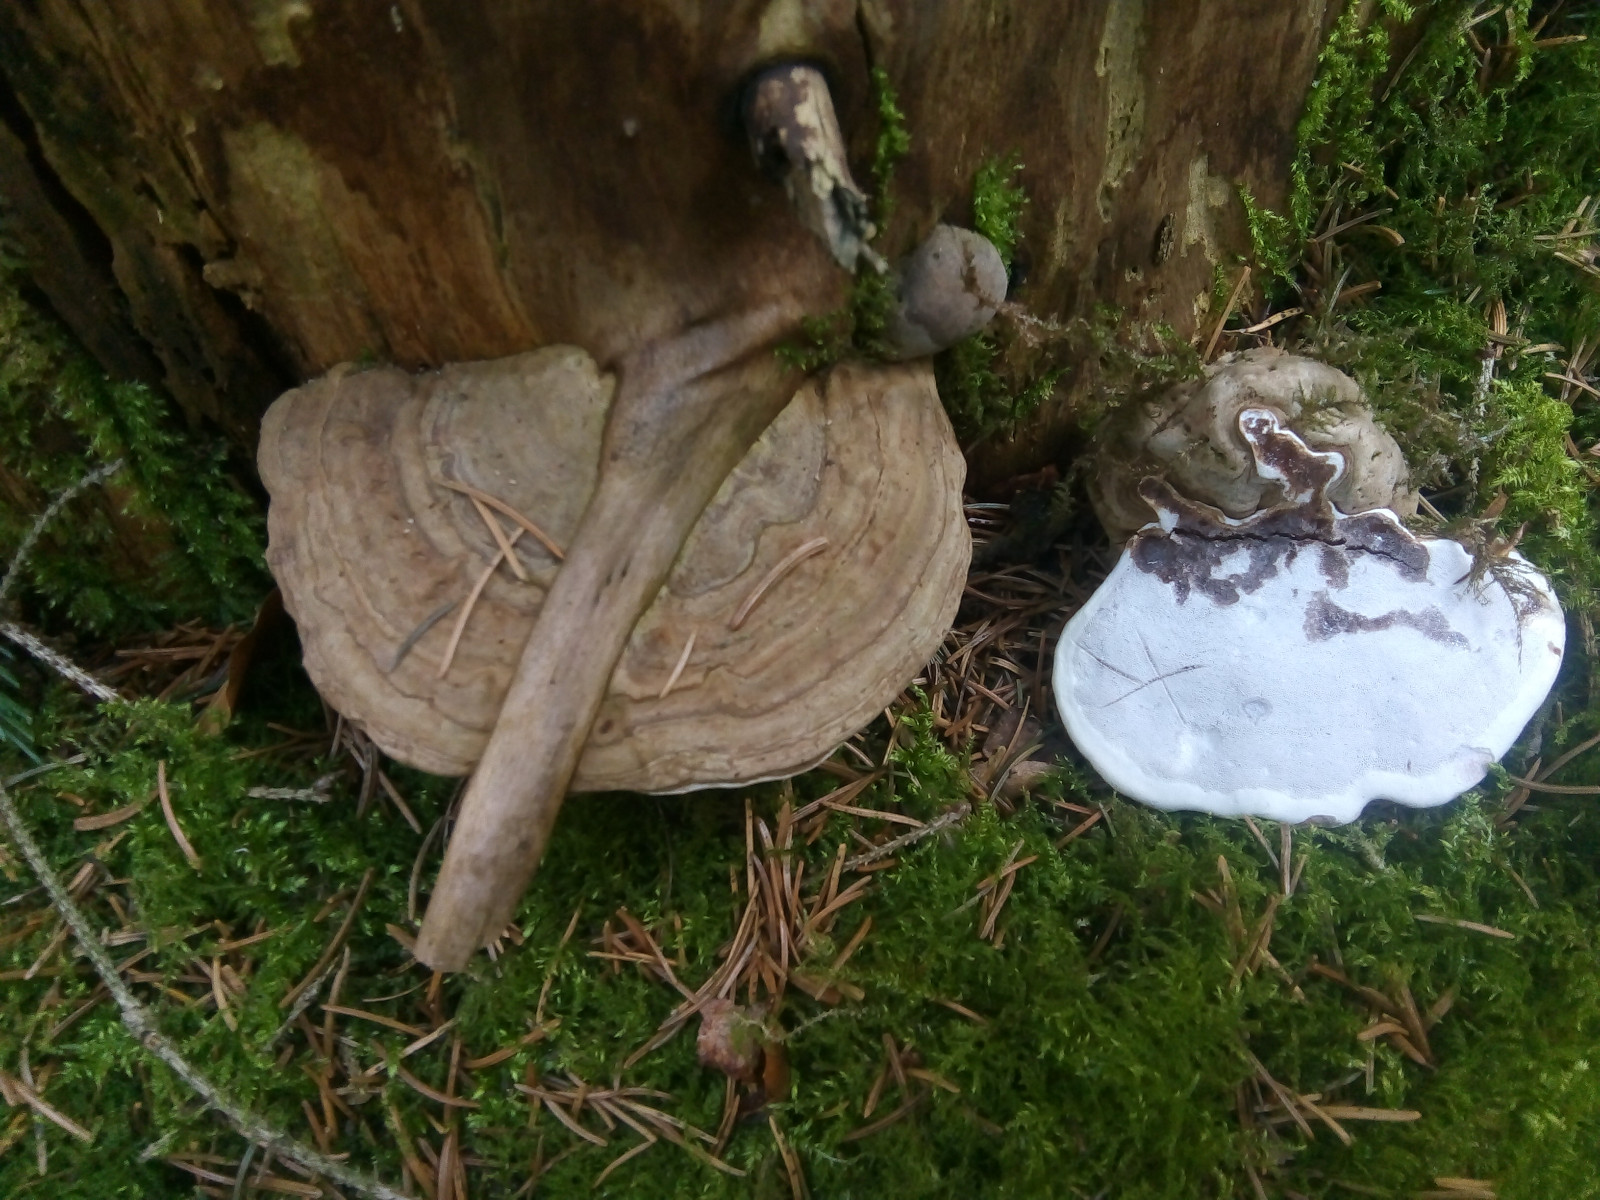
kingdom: Fungi
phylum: Basidiomycota
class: Agaricomycetes
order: Polyporales
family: Polyporaceae
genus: Ganoderma
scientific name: Ganoderma applanatum
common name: flad lakporesvamp
